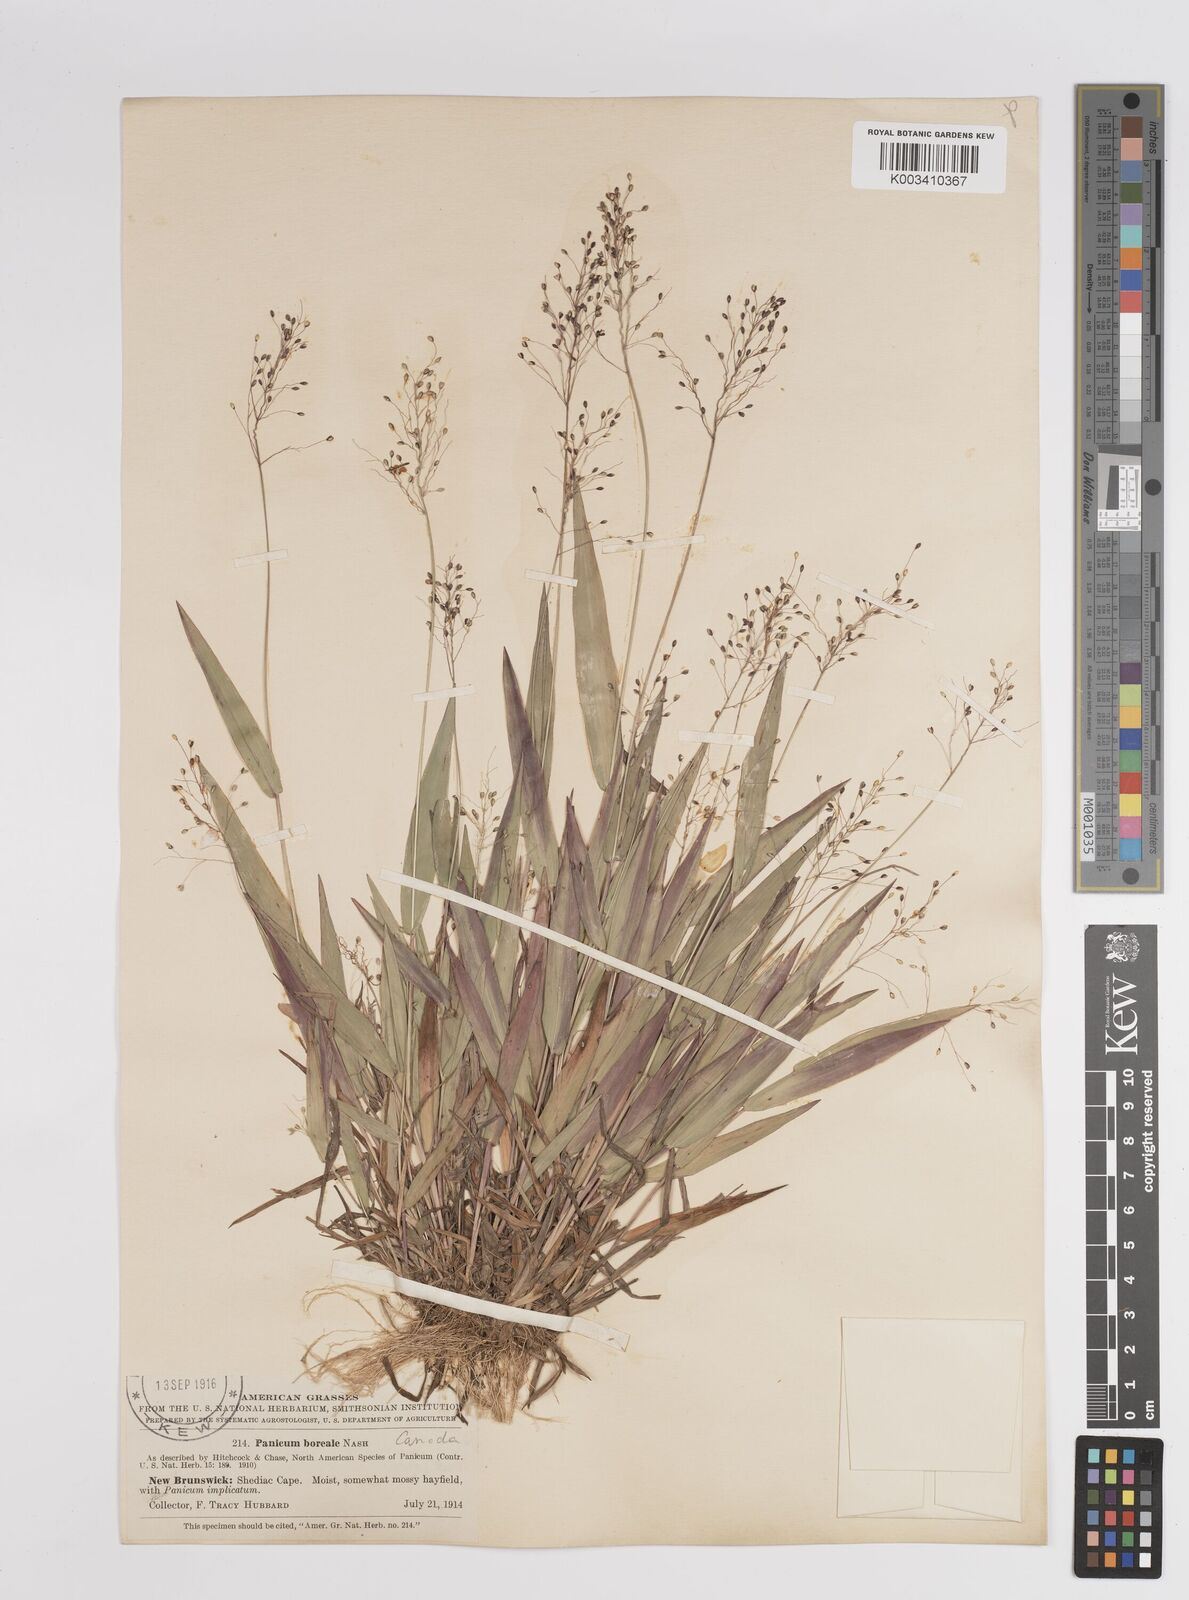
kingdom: Plantae
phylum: Tracheophyta
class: Liliopsida
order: Poales
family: Poaceae
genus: Dichanthelium
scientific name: Dichanthelium boreale
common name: Northern panicgrass
